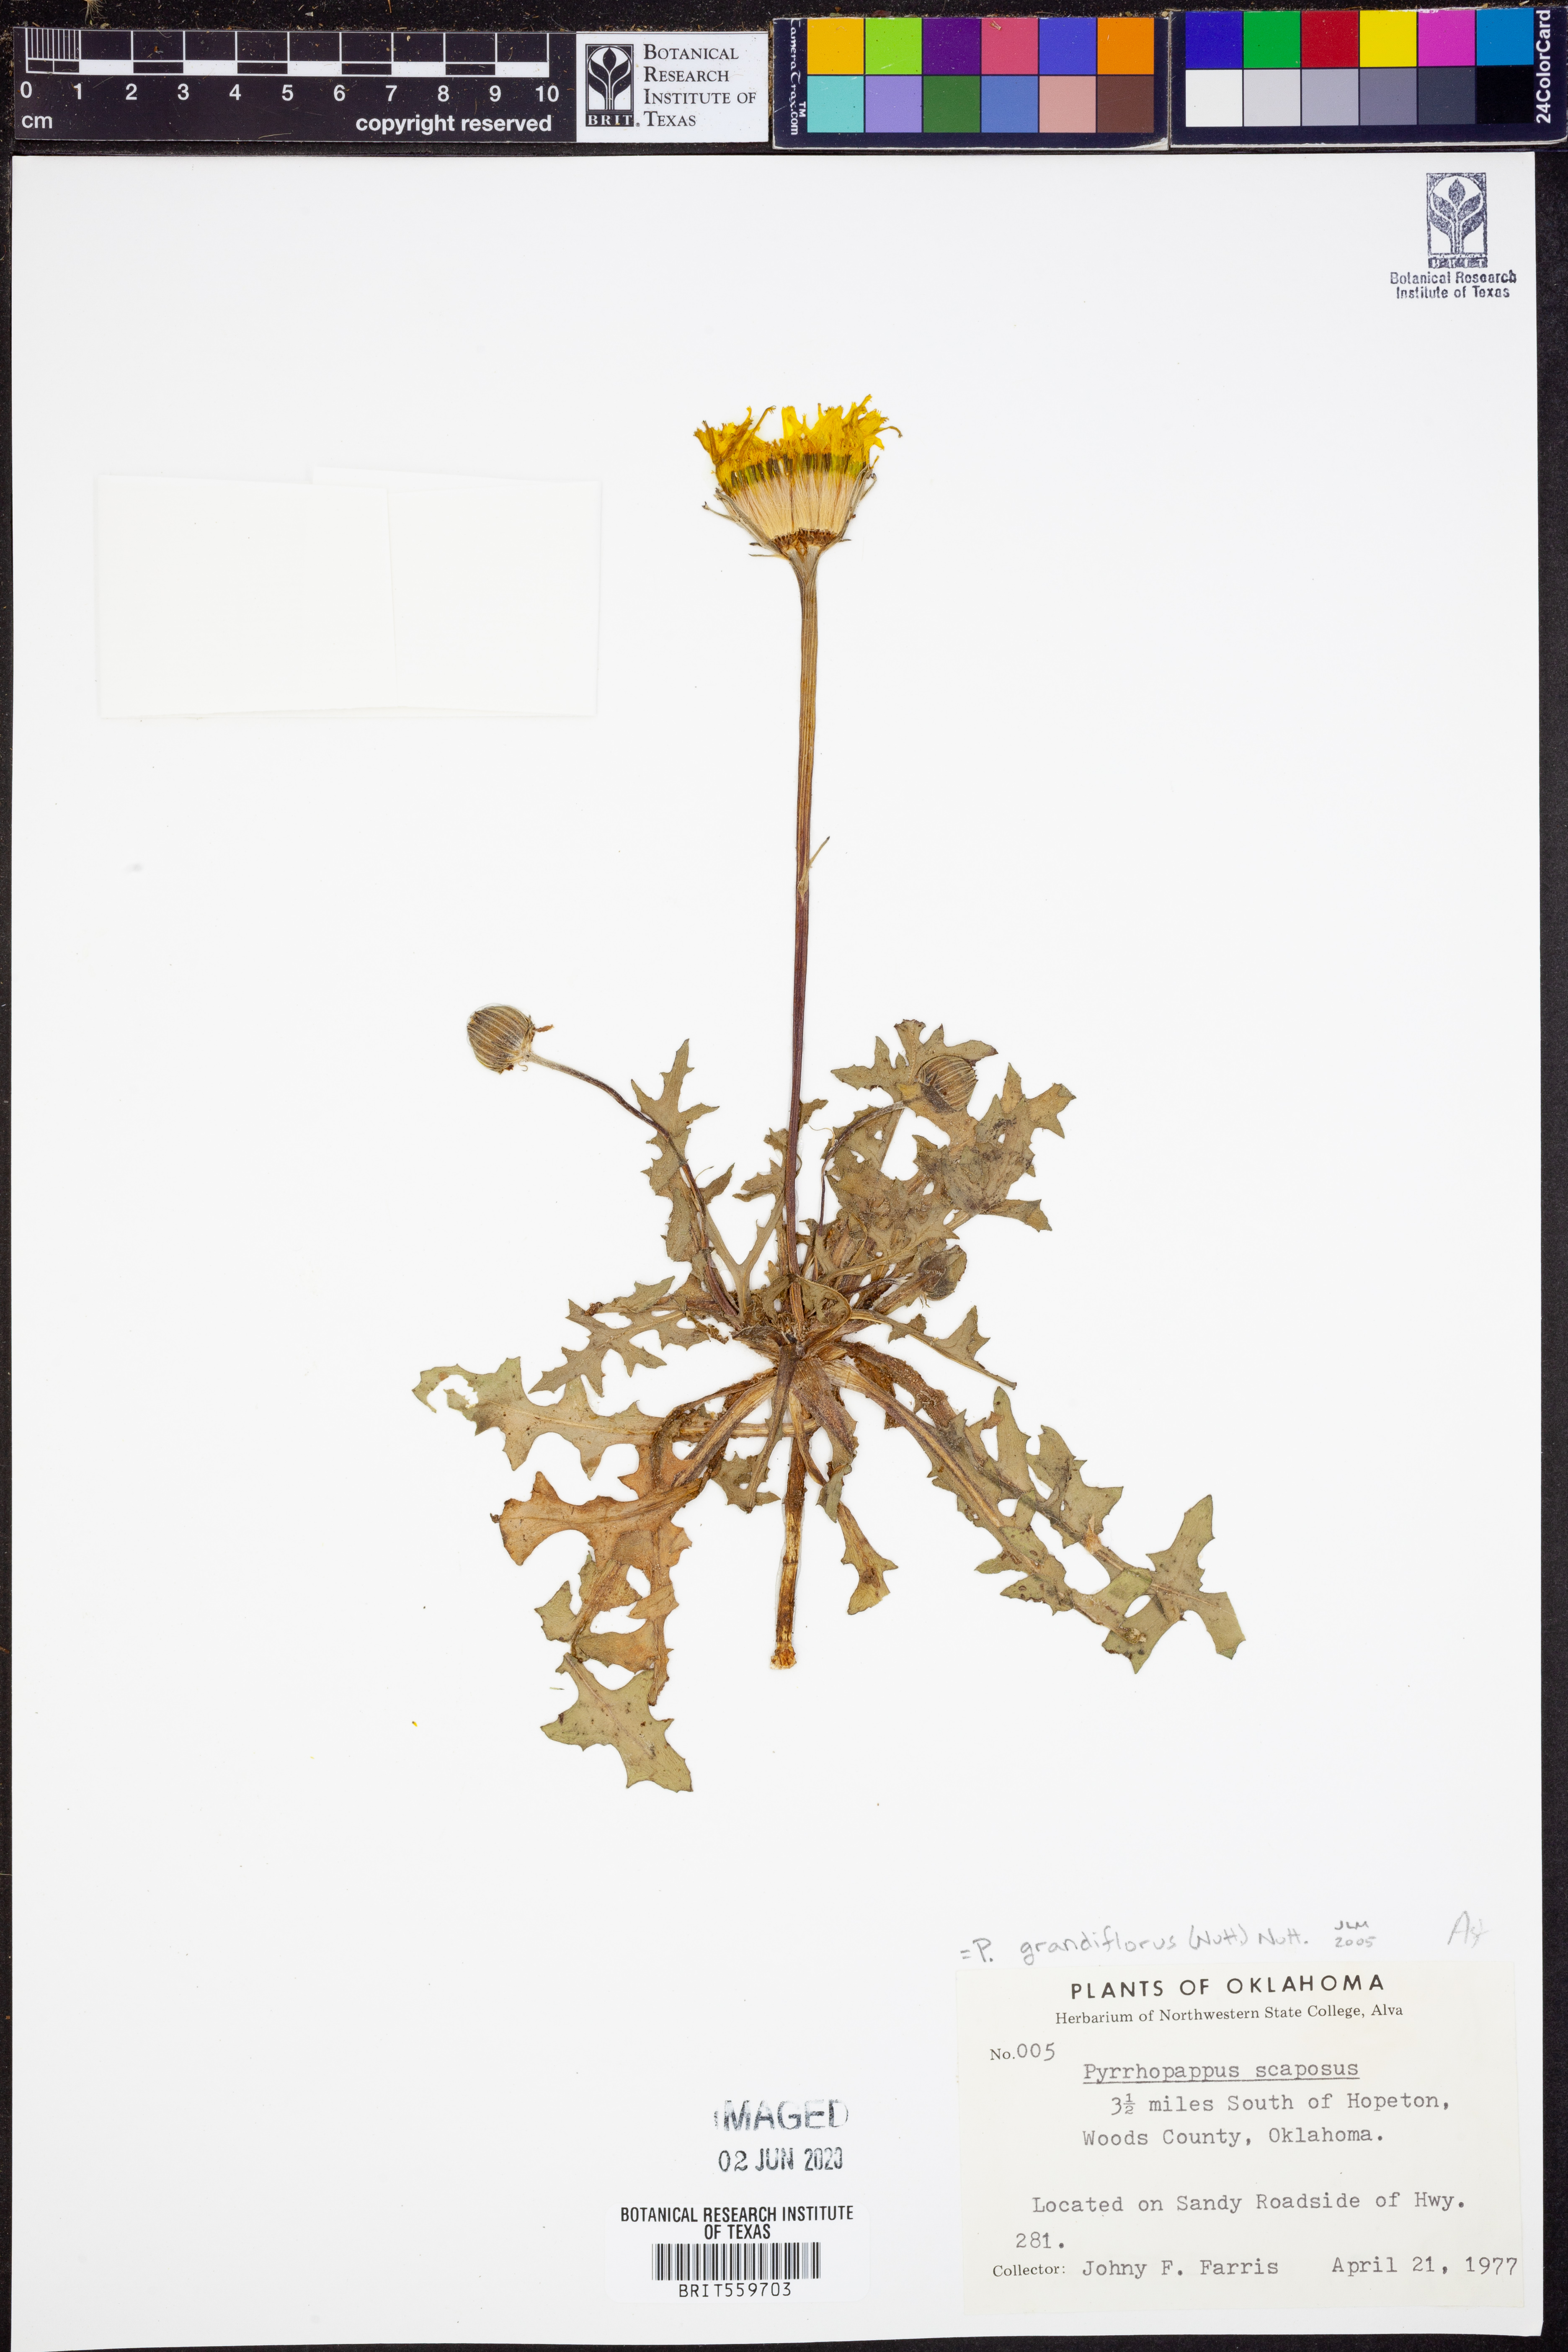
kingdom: Plantae
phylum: Tracheophyta
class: Magnoliopsida
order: Asterales
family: Asteraceae
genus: Pyrrhopappus
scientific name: Pyrrhopappus grandiflorus
